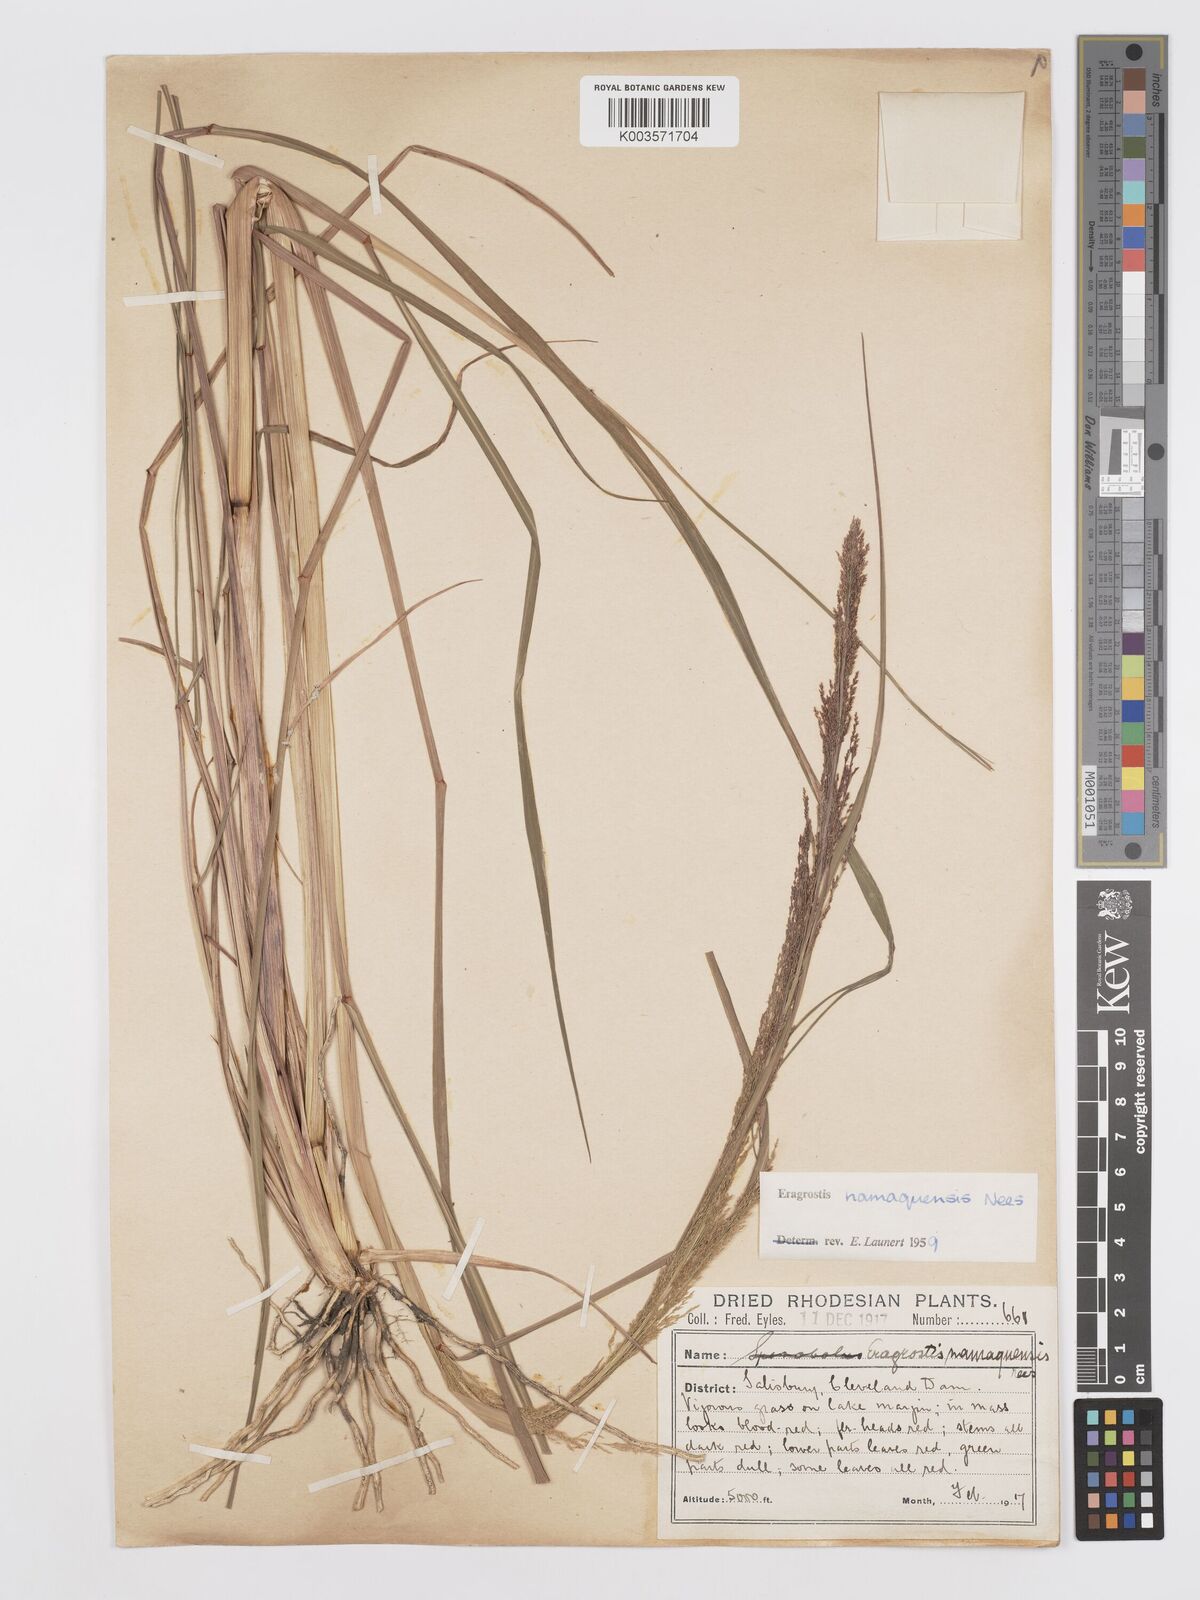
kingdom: Plantae
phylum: Tracheophyta
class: Liliopsida
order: Poales
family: Poaceae
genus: Eragrostis
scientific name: Eragrostis japonica
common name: Pond lovegrass
